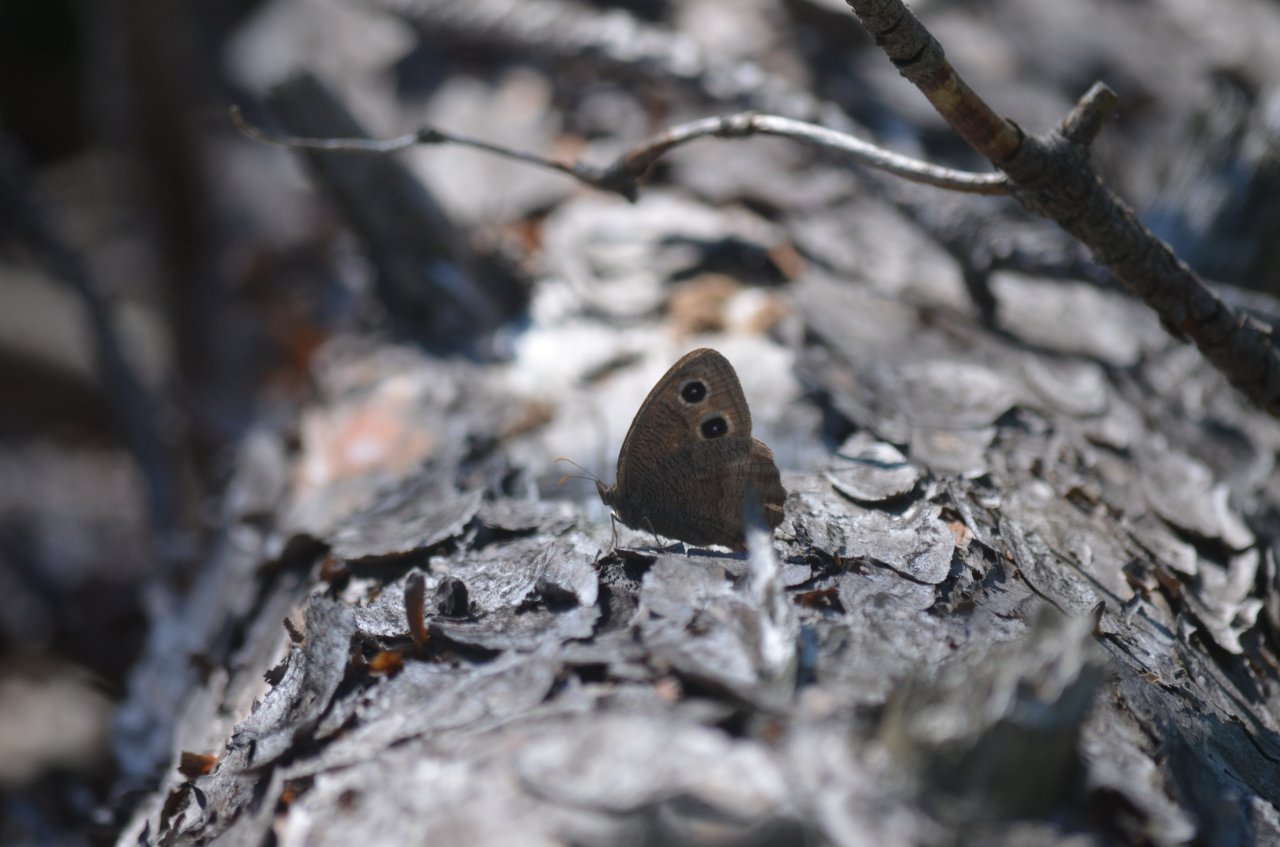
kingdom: Animalia
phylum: Arthropoda
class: Insecta
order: Lepidoptera
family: Nymphalidae
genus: Cercyonis
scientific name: Cercyonis pegala
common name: Common Wood-Nymph
